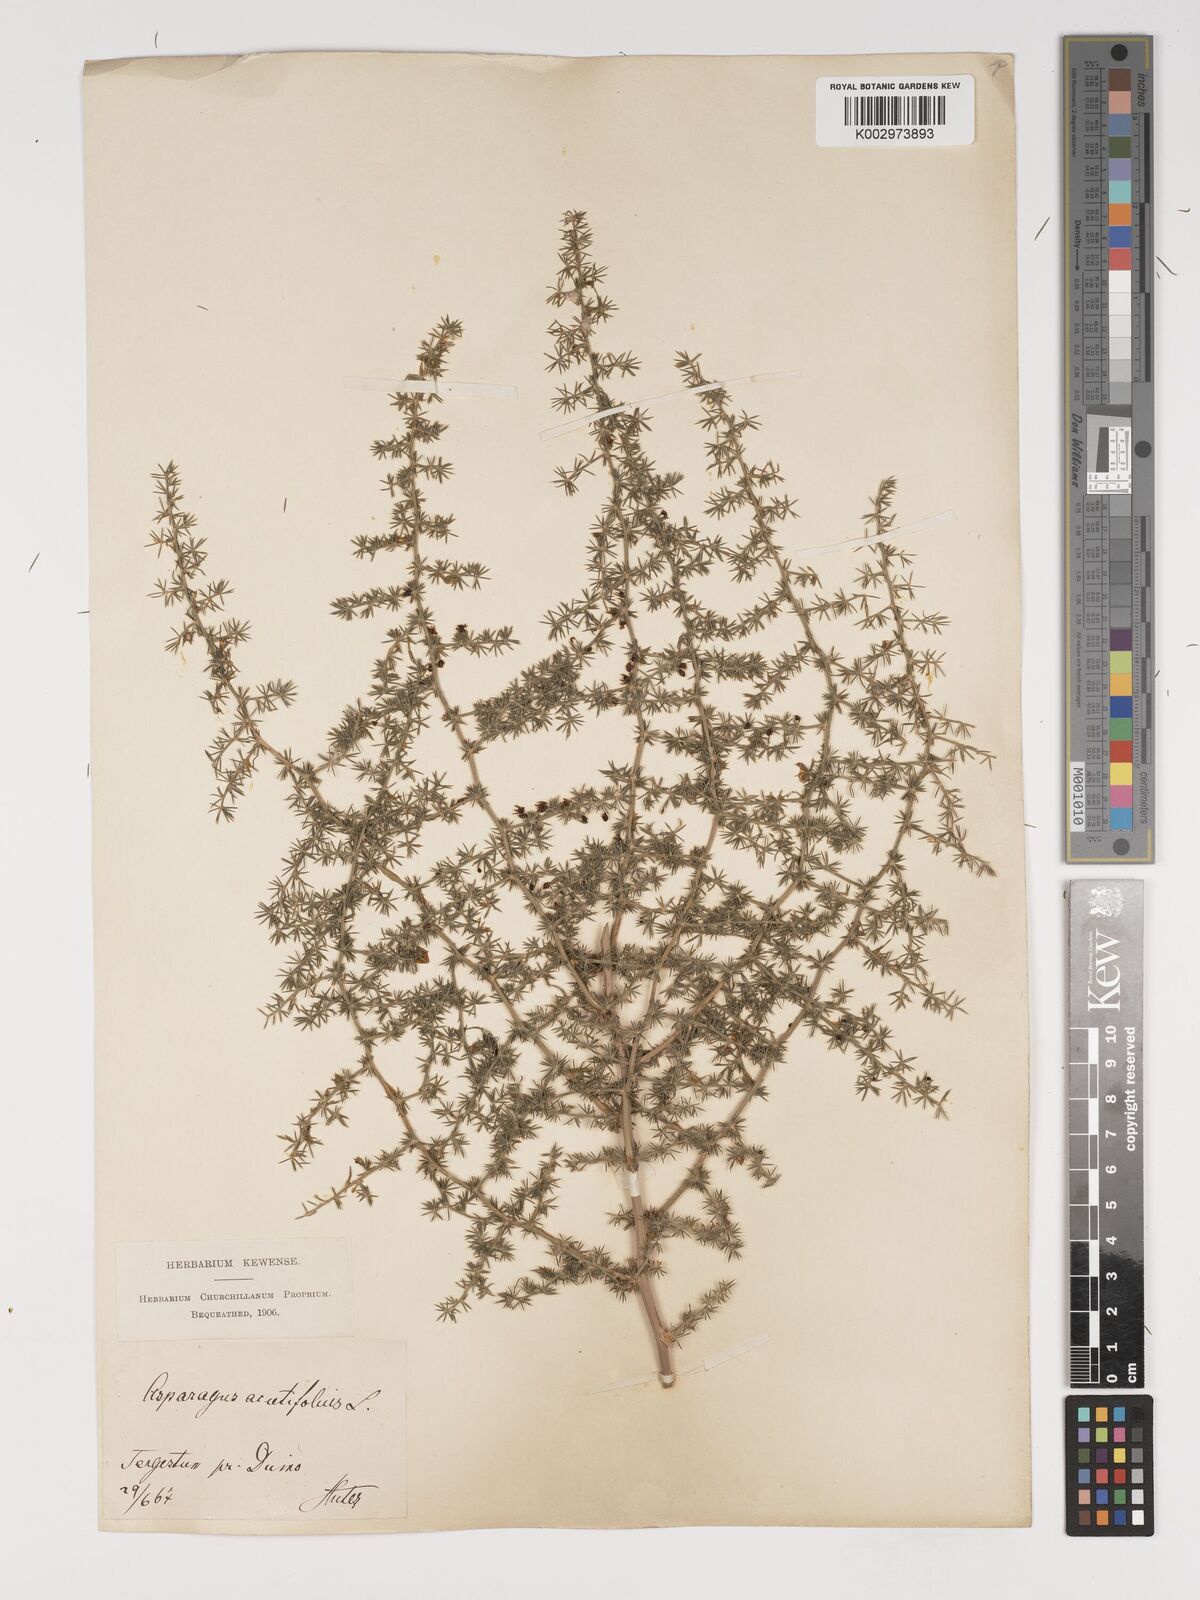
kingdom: Plantae
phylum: Tracheophyta
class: Liliopsida
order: Asparagales
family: Asparagaceae
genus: Asparagus
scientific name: Asparagus acutifolius
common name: Wild asparagus
